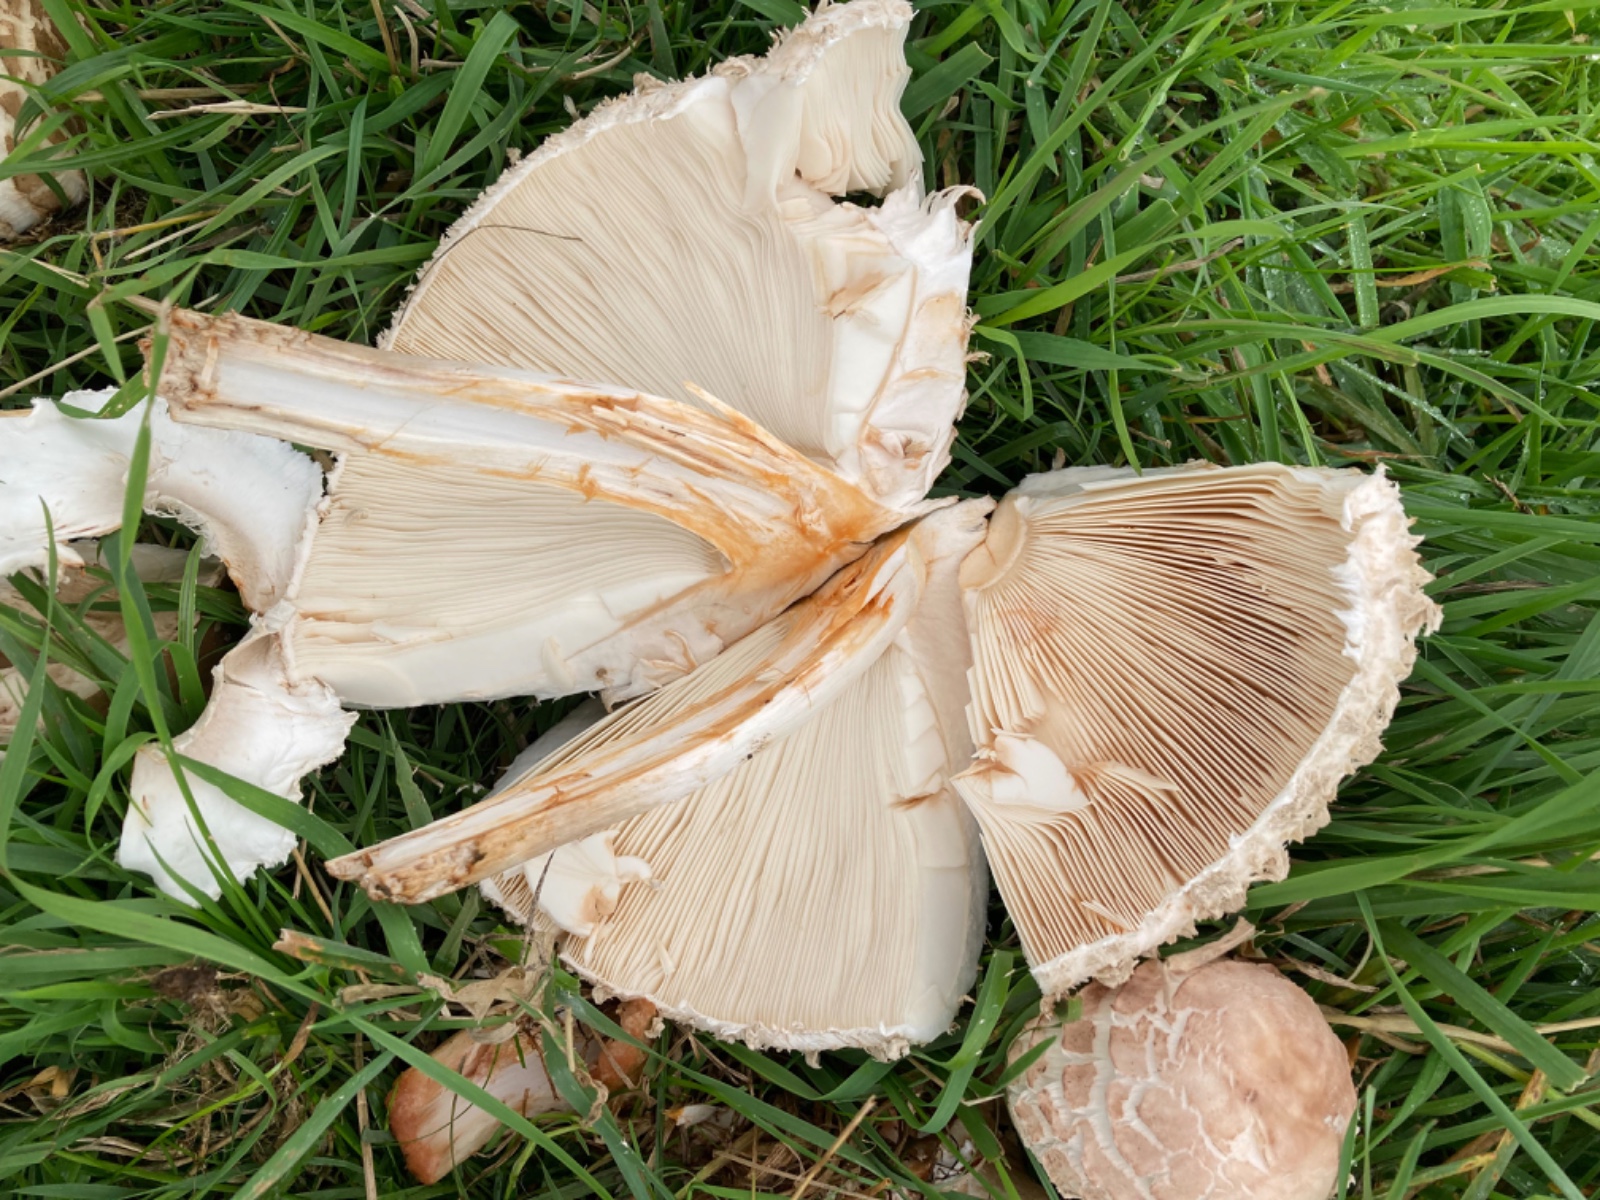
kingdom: Fungi
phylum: Basidiomycota
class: Agaricomycetes
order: Agaricales
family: Agaricaceae
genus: Chlorophyllum
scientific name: Chlorophyllum brunneum
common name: giftig rabarberhat
